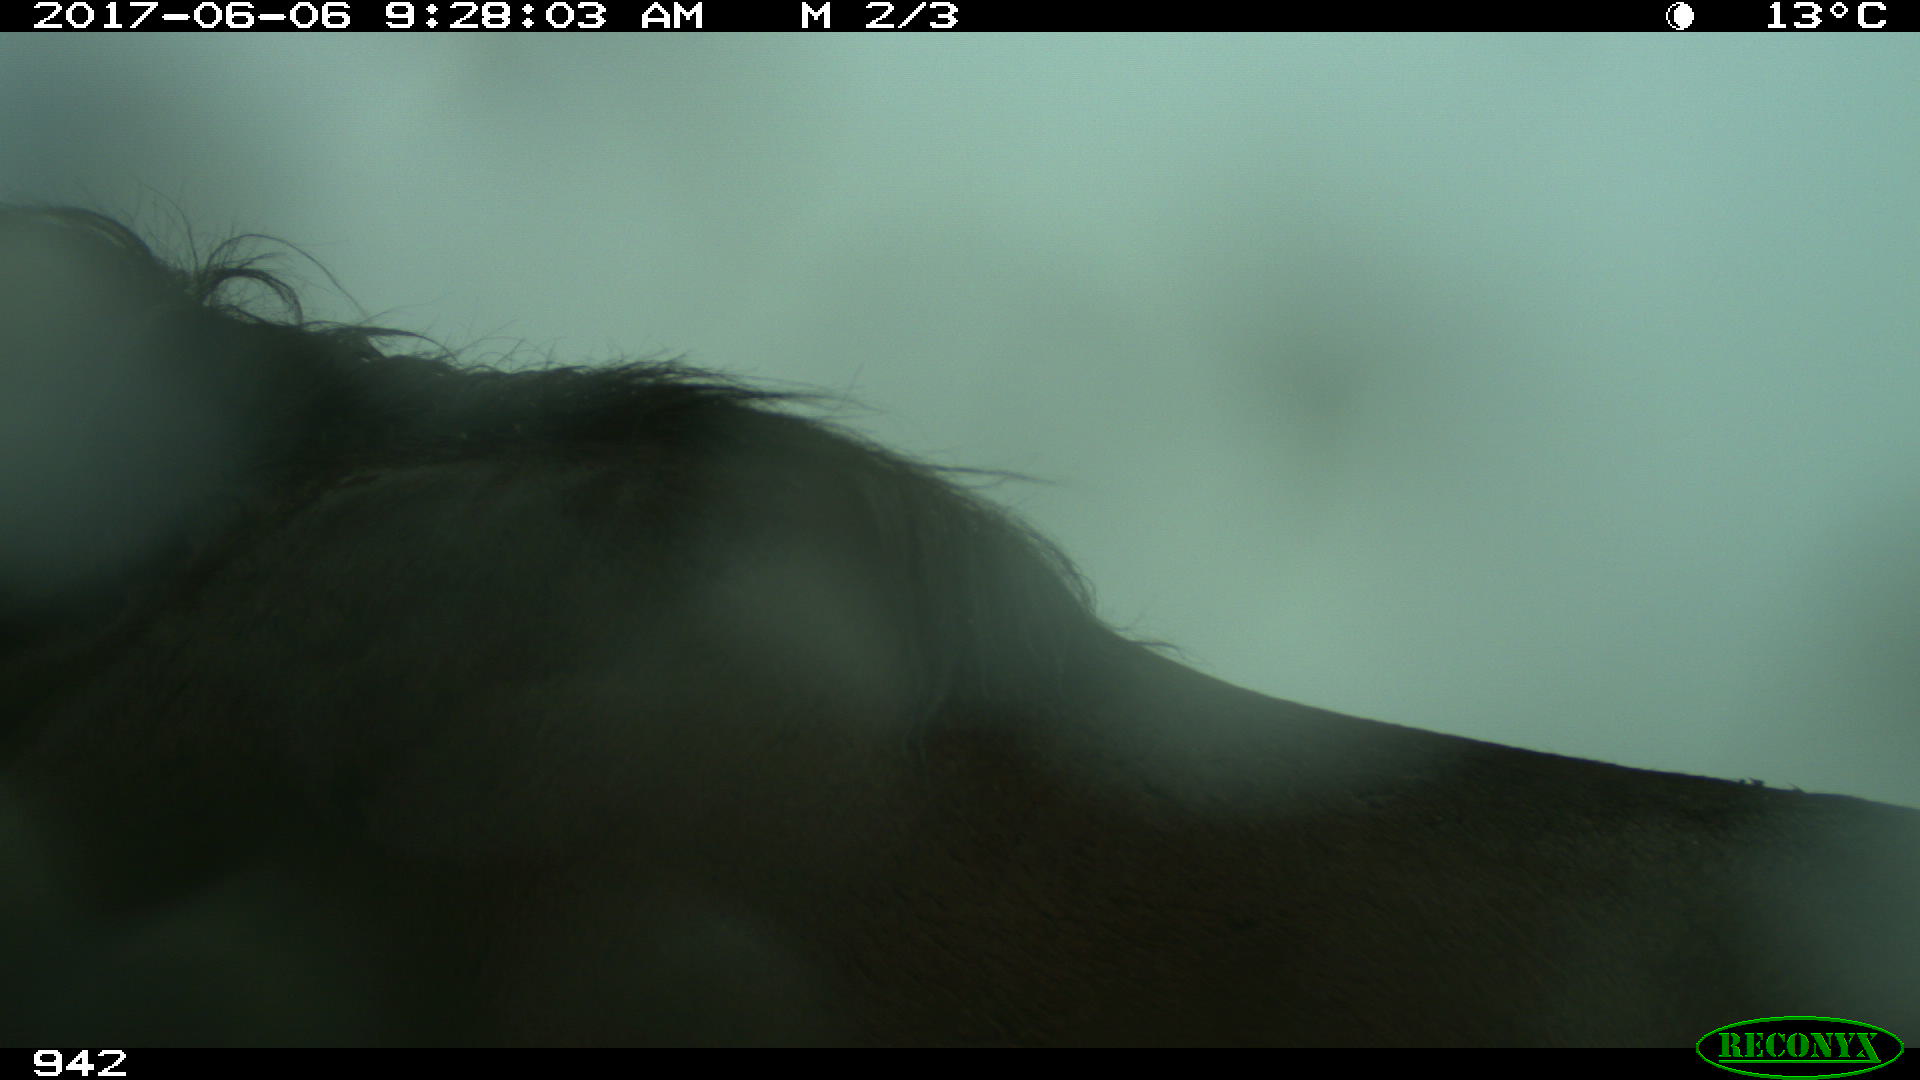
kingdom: Animalia
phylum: Chordata
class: Mammalia
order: Perissodactyla
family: Equidae
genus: Equus
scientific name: Equus caballus
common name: Horse
